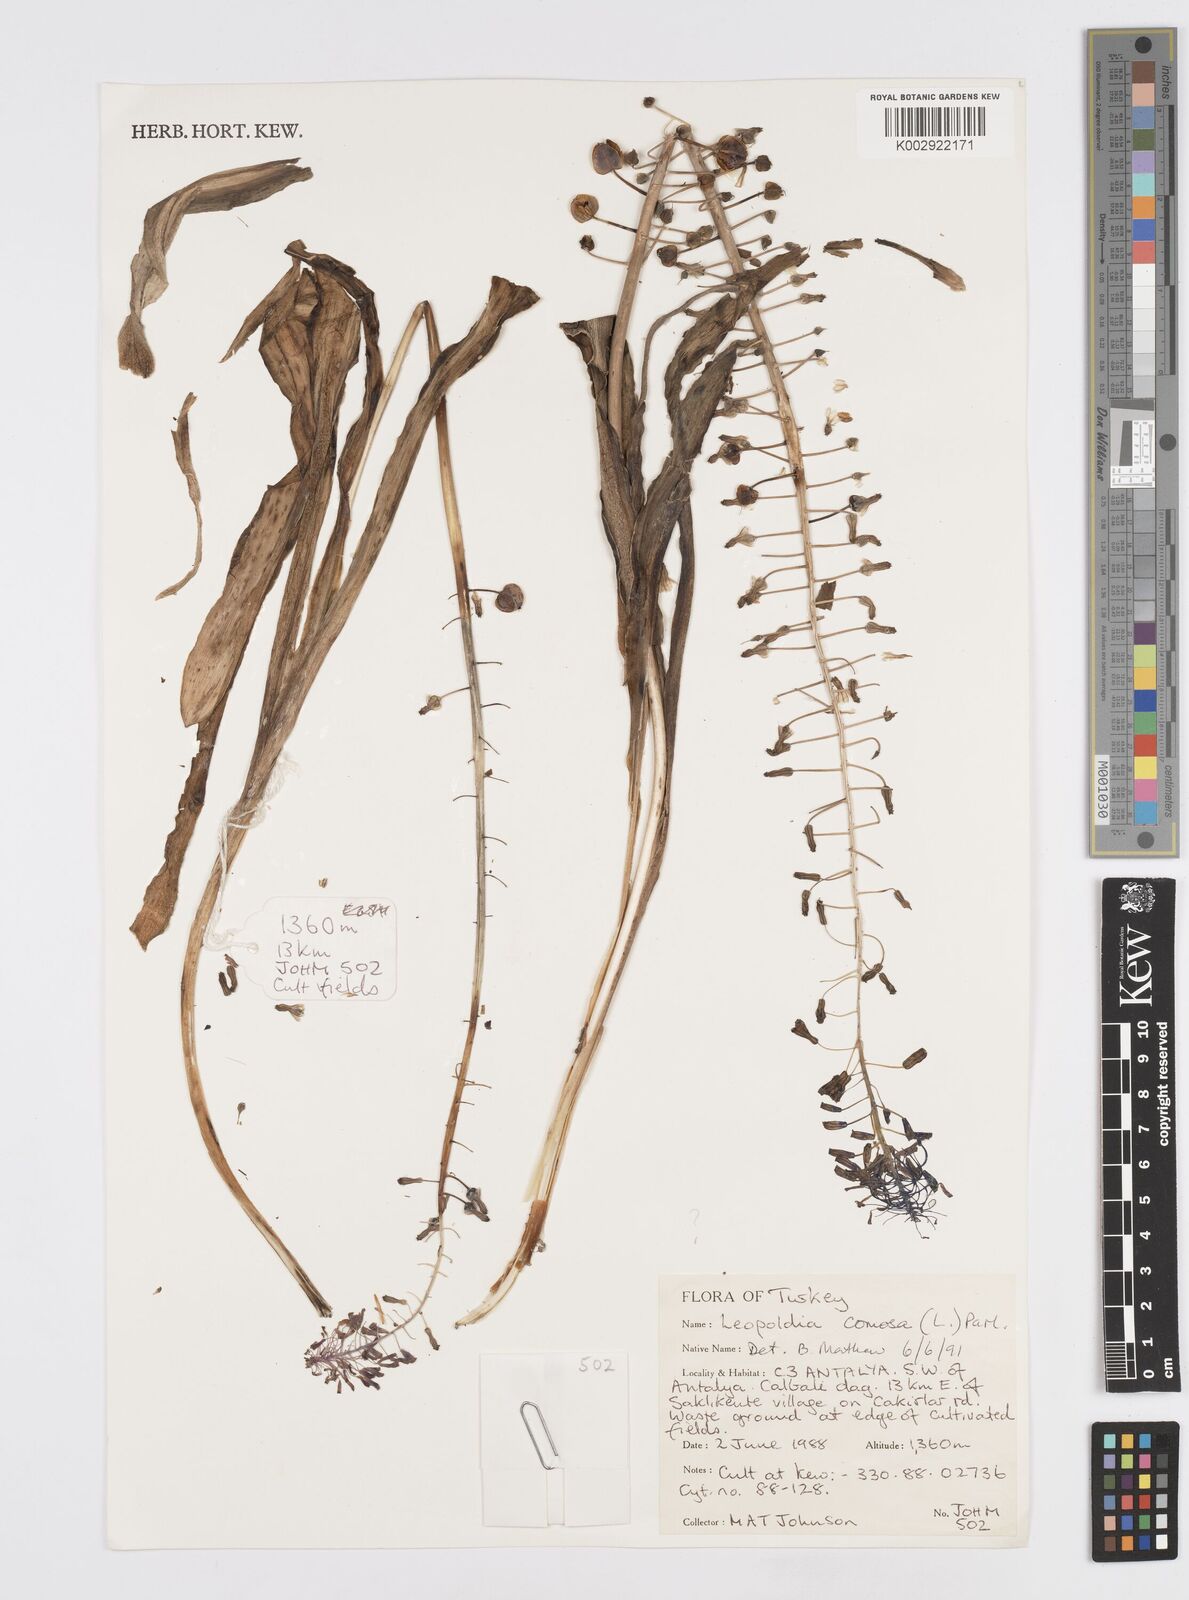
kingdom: Plantae
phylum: Tracheophyta
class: Liliopsida
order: Asparagales
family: Asparagaceae
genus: Muscari
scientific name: Muscari comosum
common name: Tassel hyacinth
